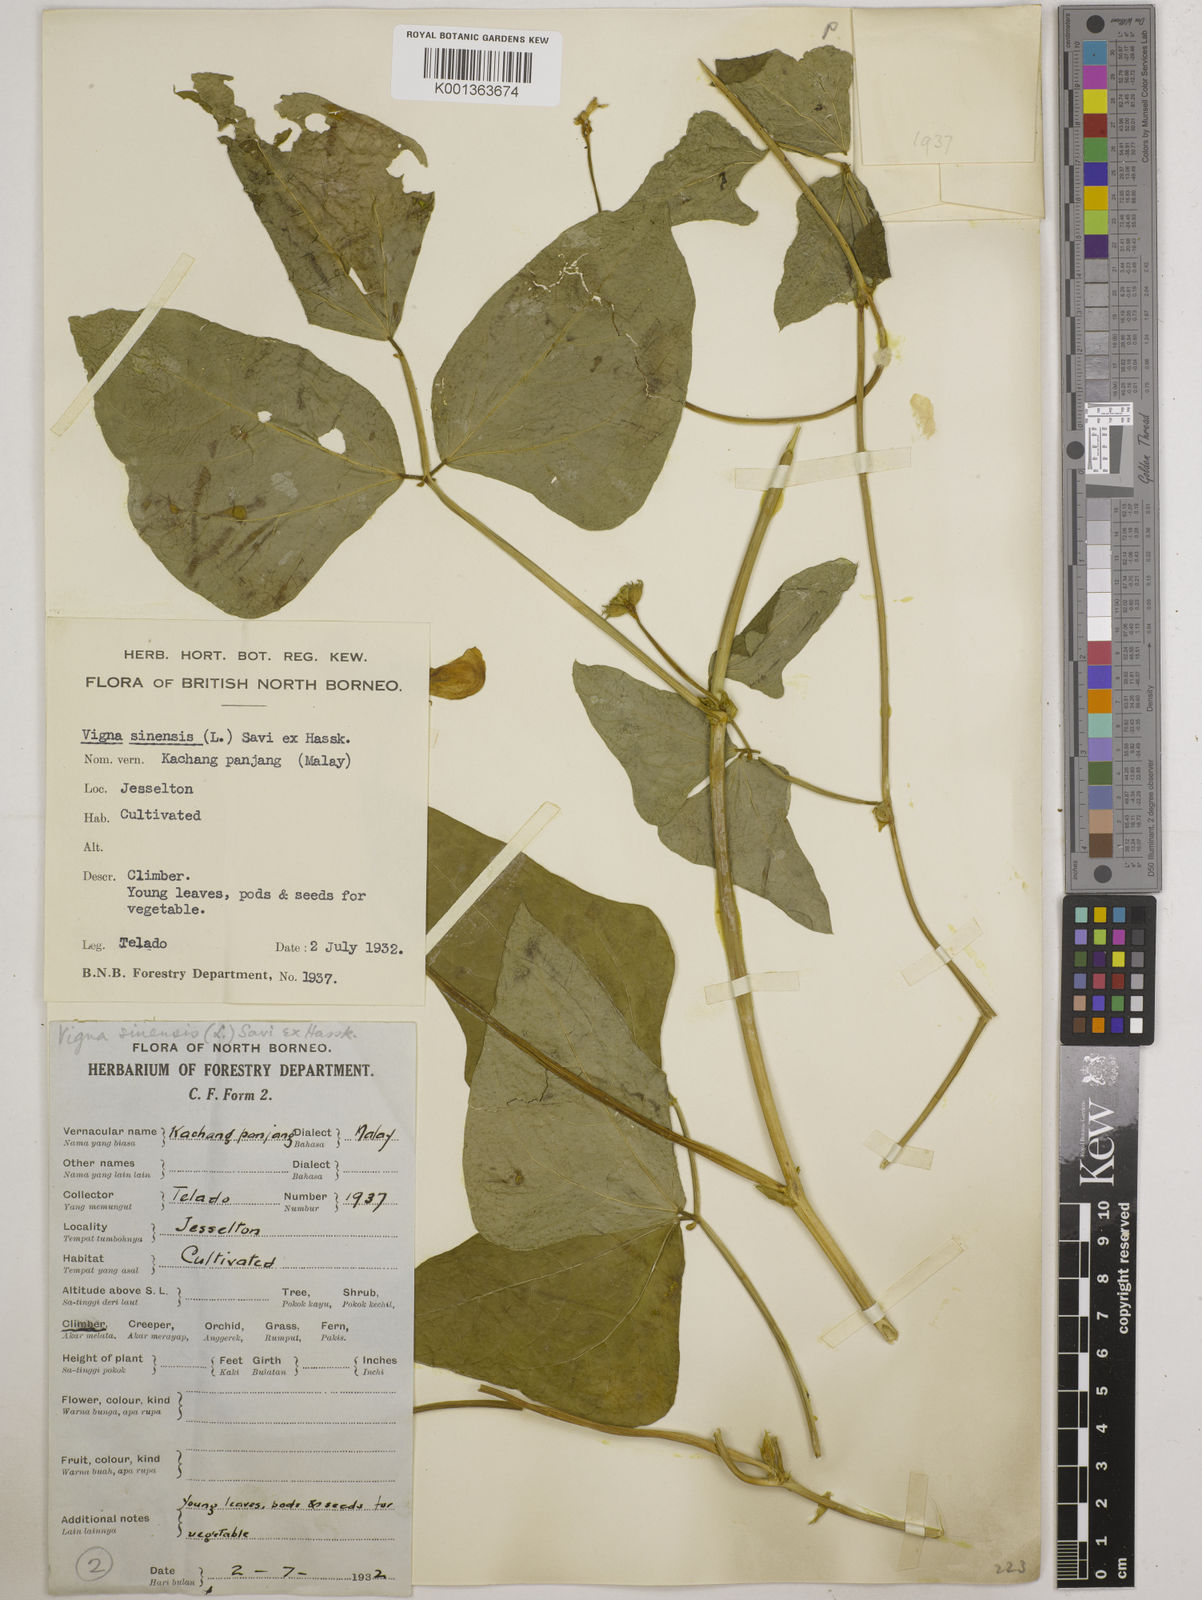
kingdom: Plantae
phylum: Tracheophyta
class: Magnoliopsida
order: Fabales
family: Fabaceae
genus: Vigna
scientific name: Vigna unguiculata
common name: Cowpea
